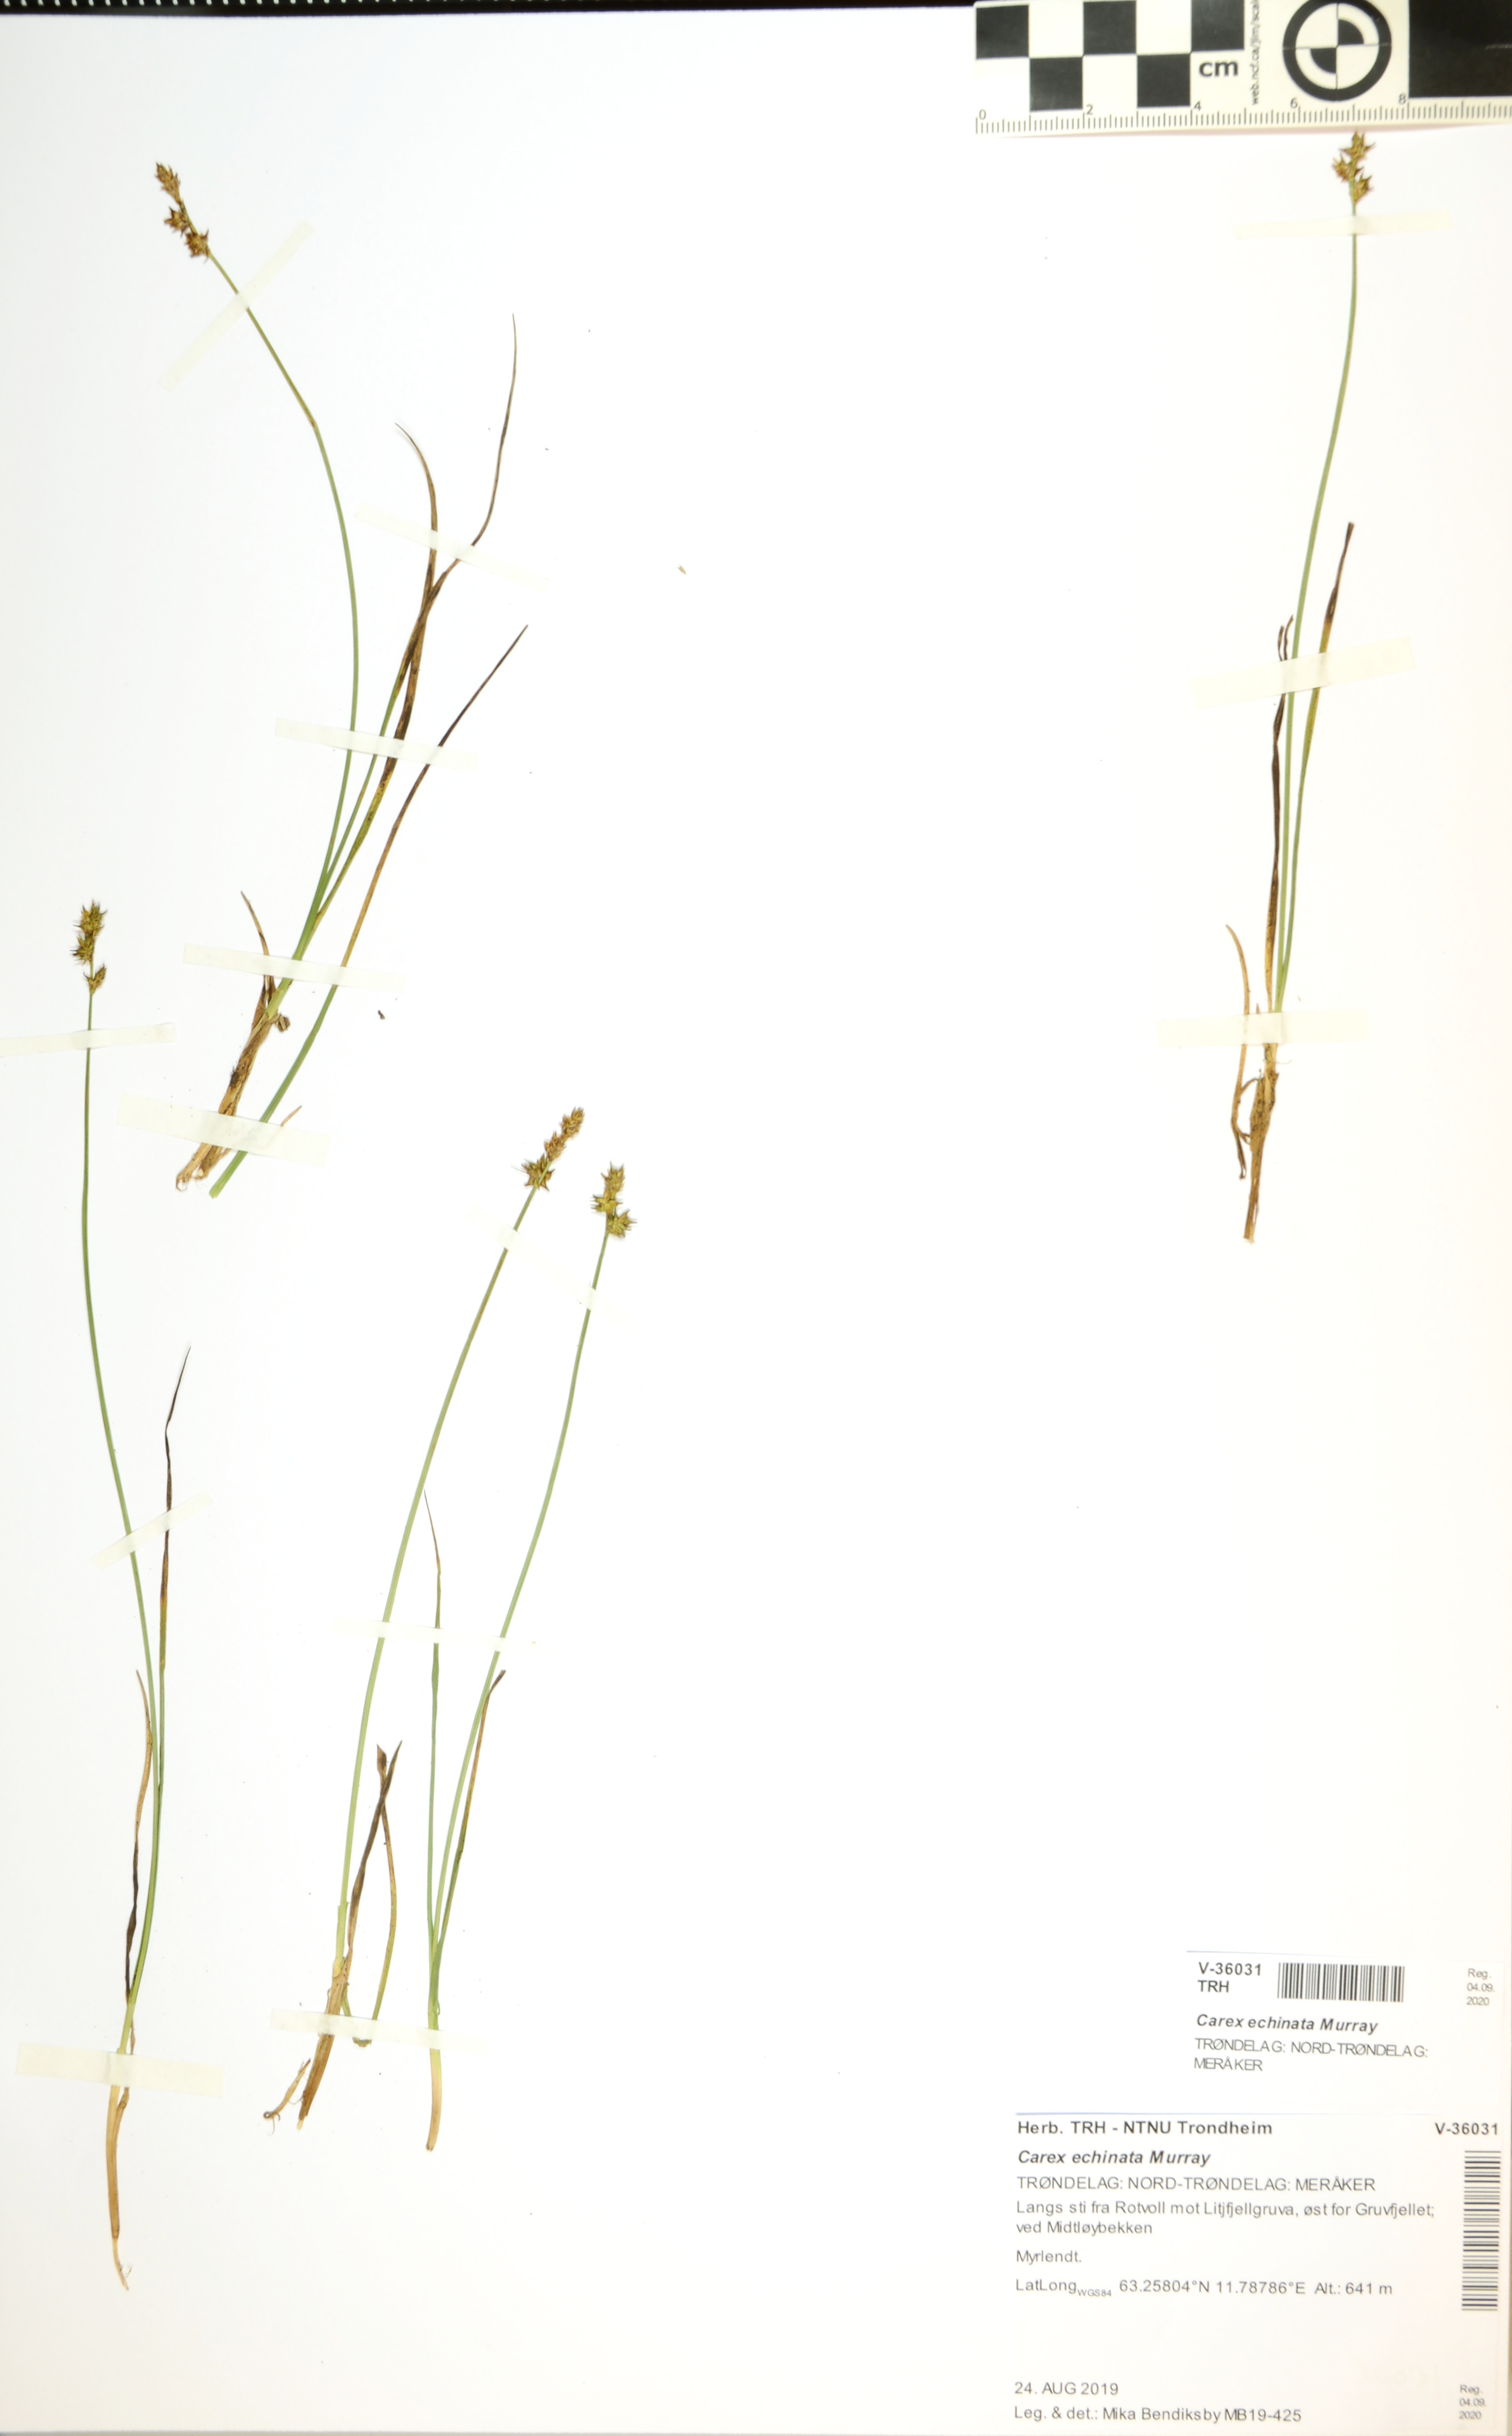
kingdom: Plantae
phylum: Tracheophyta
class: Liliopsida
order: Poales
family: Cyperaceae
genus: Carex
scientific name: Carex echinata
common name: Star sedge
